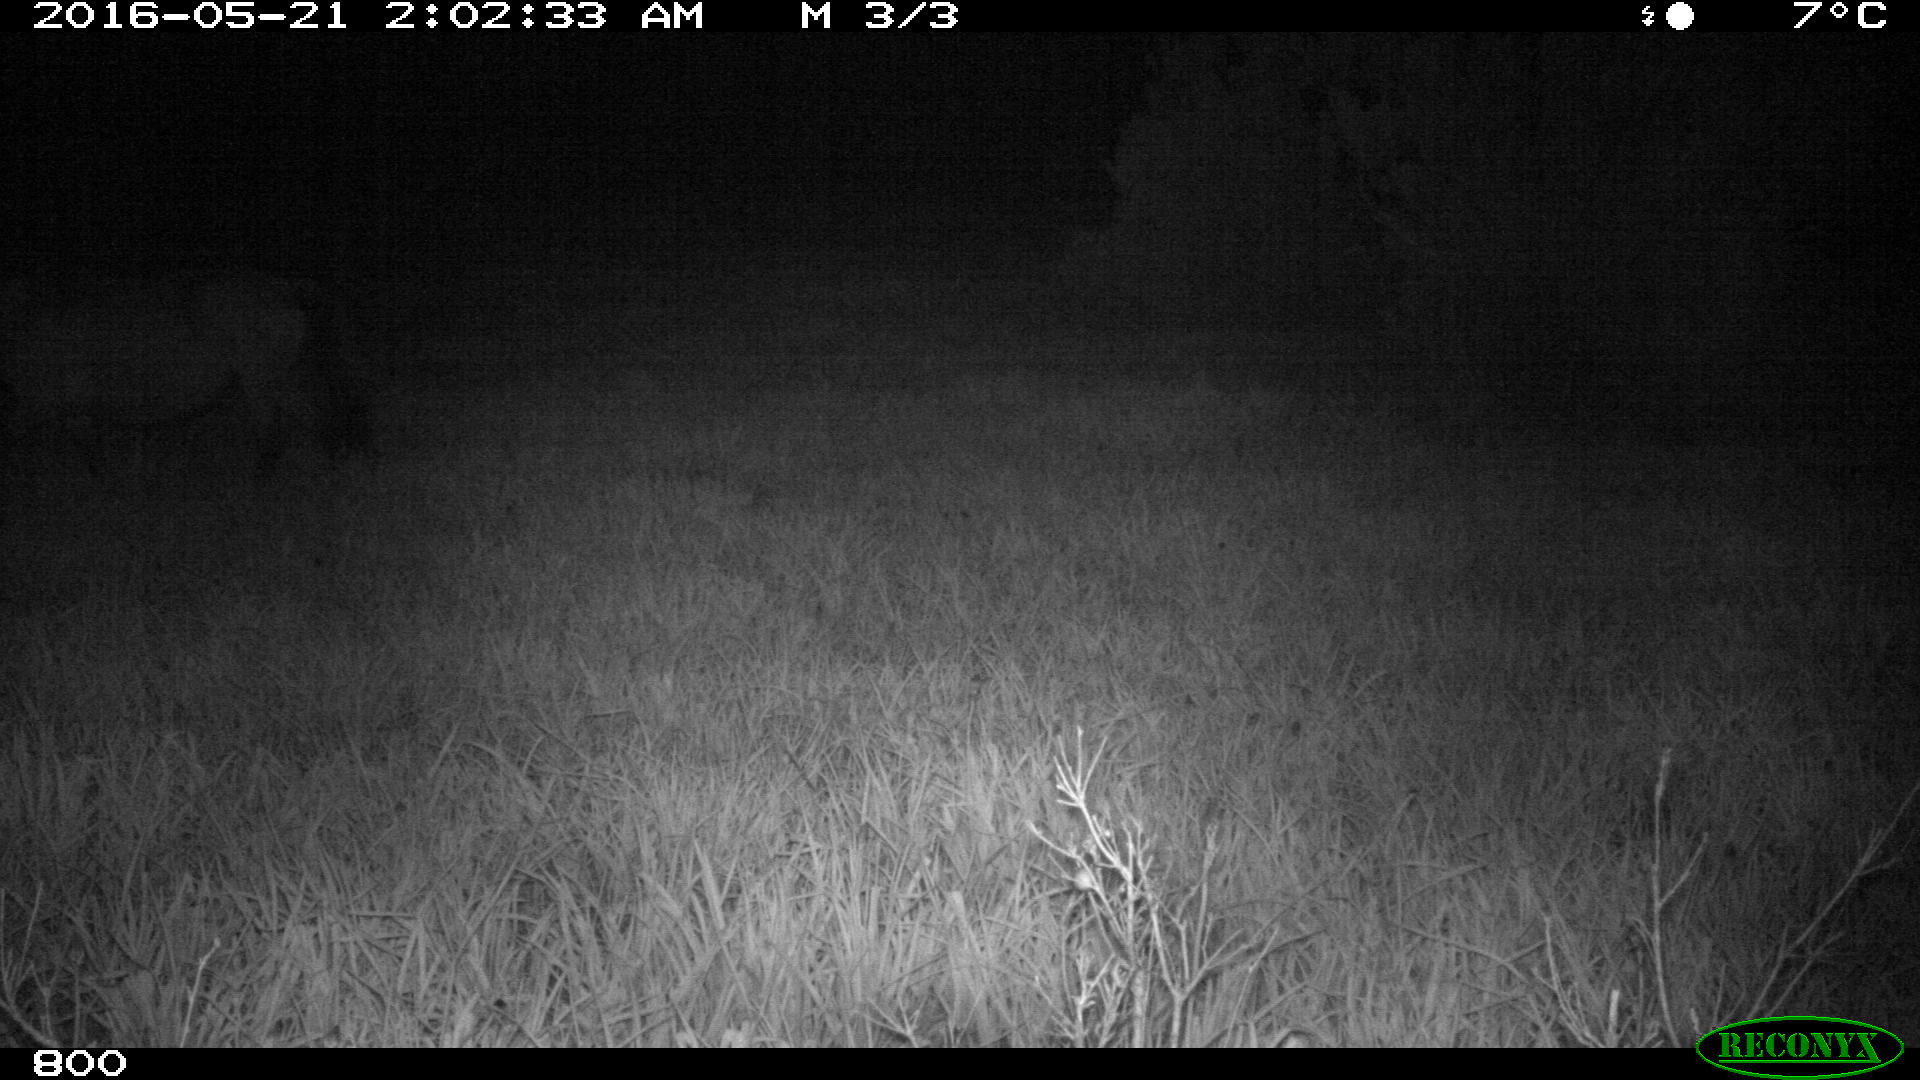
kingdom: Animalia
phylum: Chordata
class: Mammalia
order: Perissodactyla
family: Equidae
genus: Equus
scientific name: Equus caballus
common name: Horse
